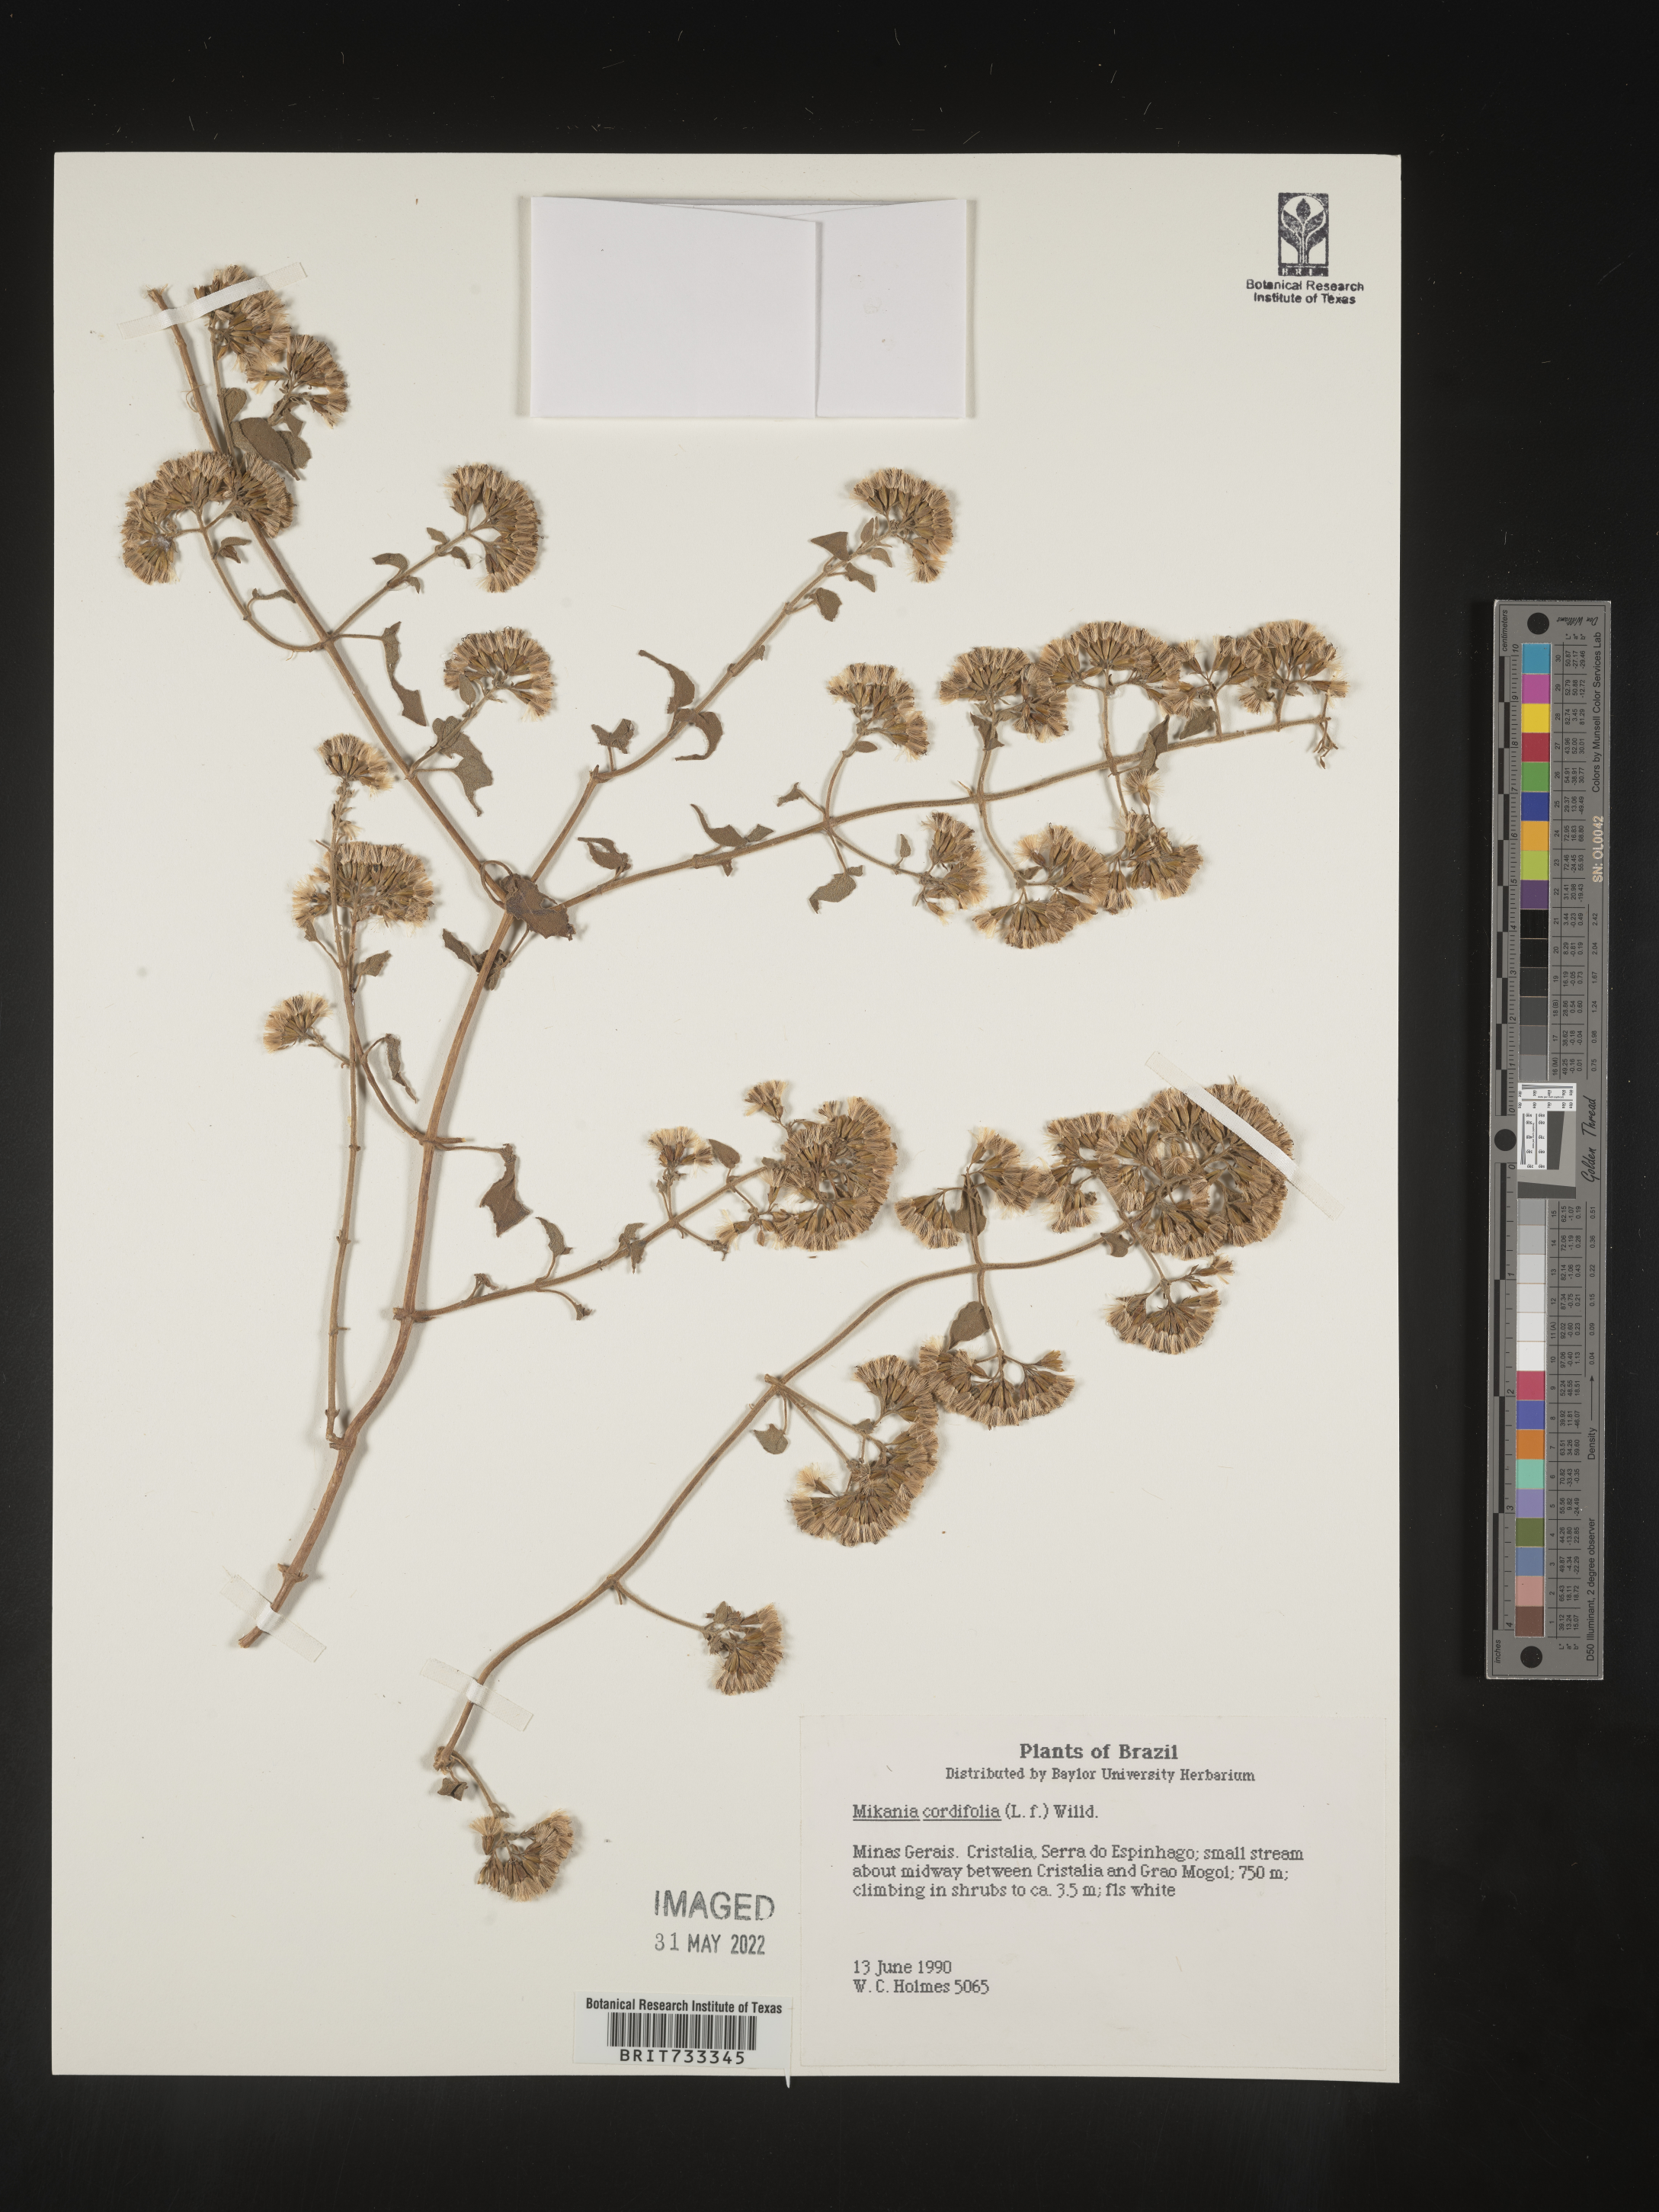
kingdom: Plantae
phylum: Tracheophyta
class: Magnoliopsida
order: Asterales
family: Asteraceae
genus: Mikania
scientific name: Mikania
